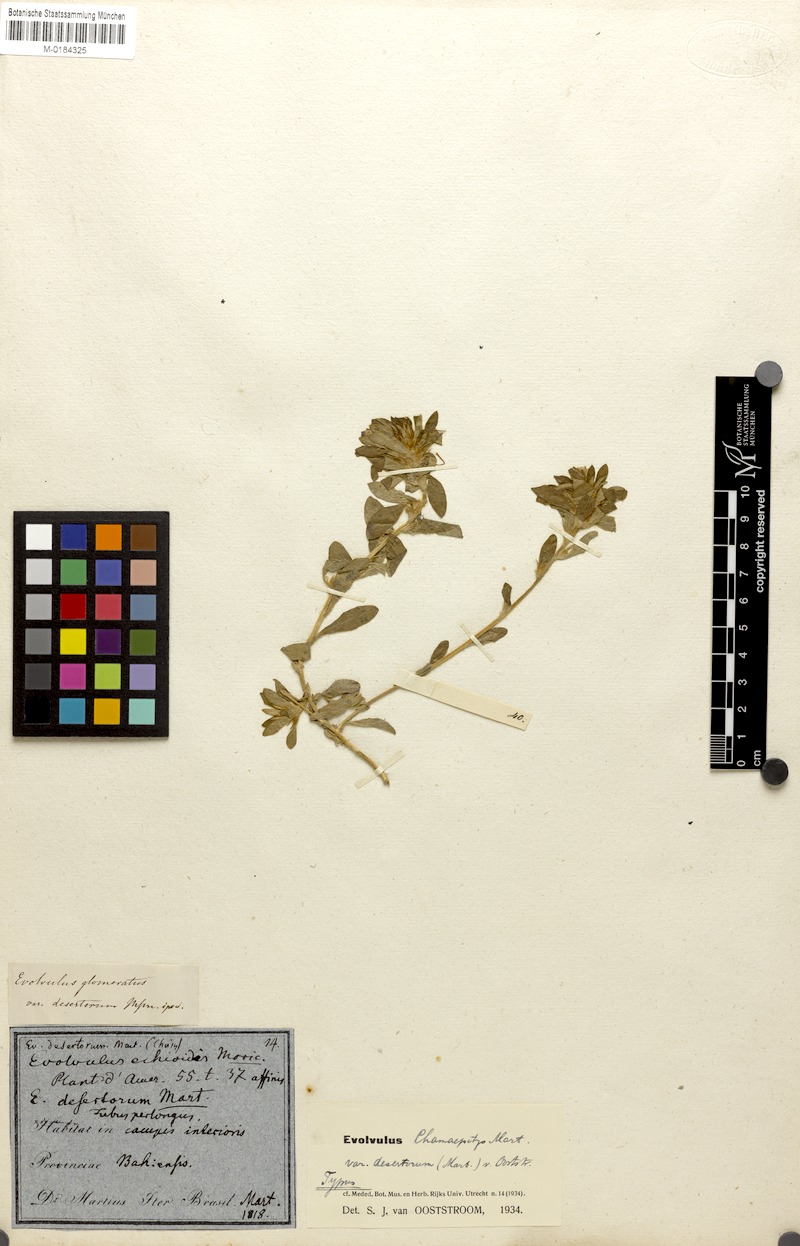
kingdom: Plantae
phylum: Tracheophyta
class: Magnoliopsida
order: Solanales
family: Convolvulaceae
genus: Evolvulus
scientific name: Evolvulus chamaepitys
